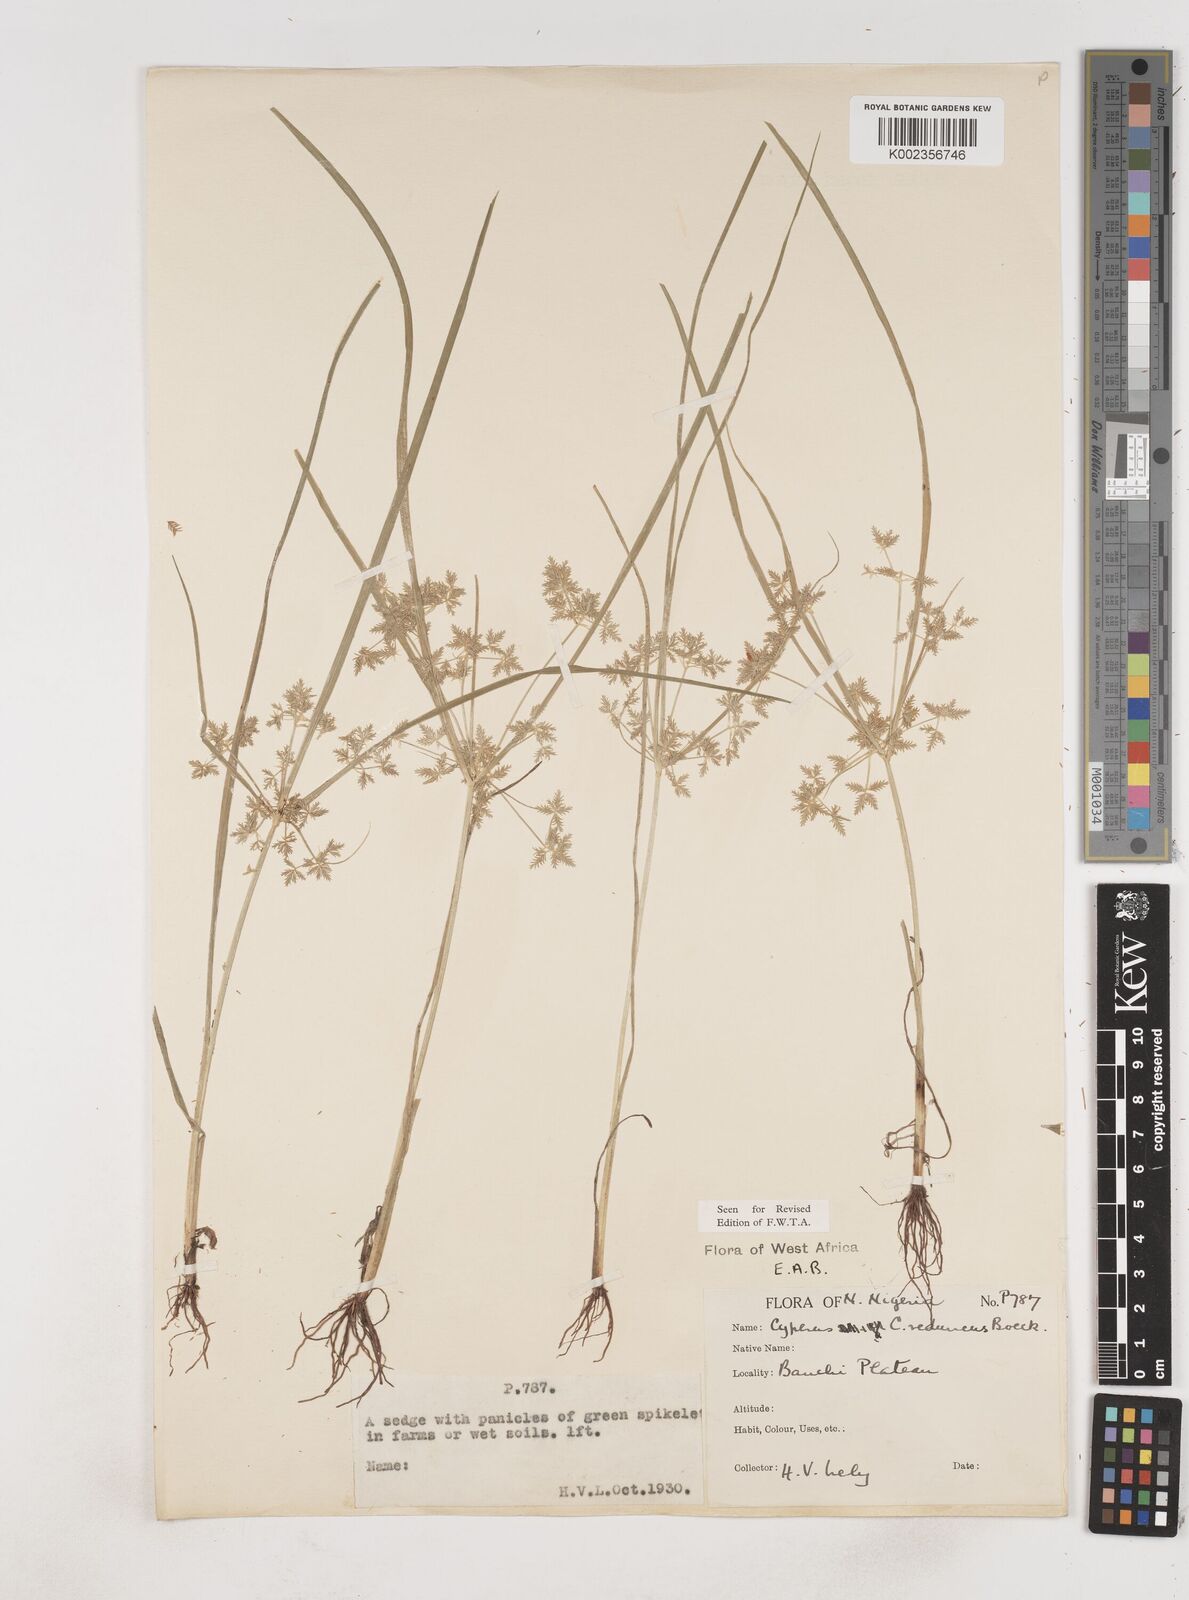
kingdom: Plantae
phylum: Tracheophyta
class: Liliopsida
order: Poales
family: Cyperaceae
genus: Cyperus
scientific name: Cyperus reduncus
